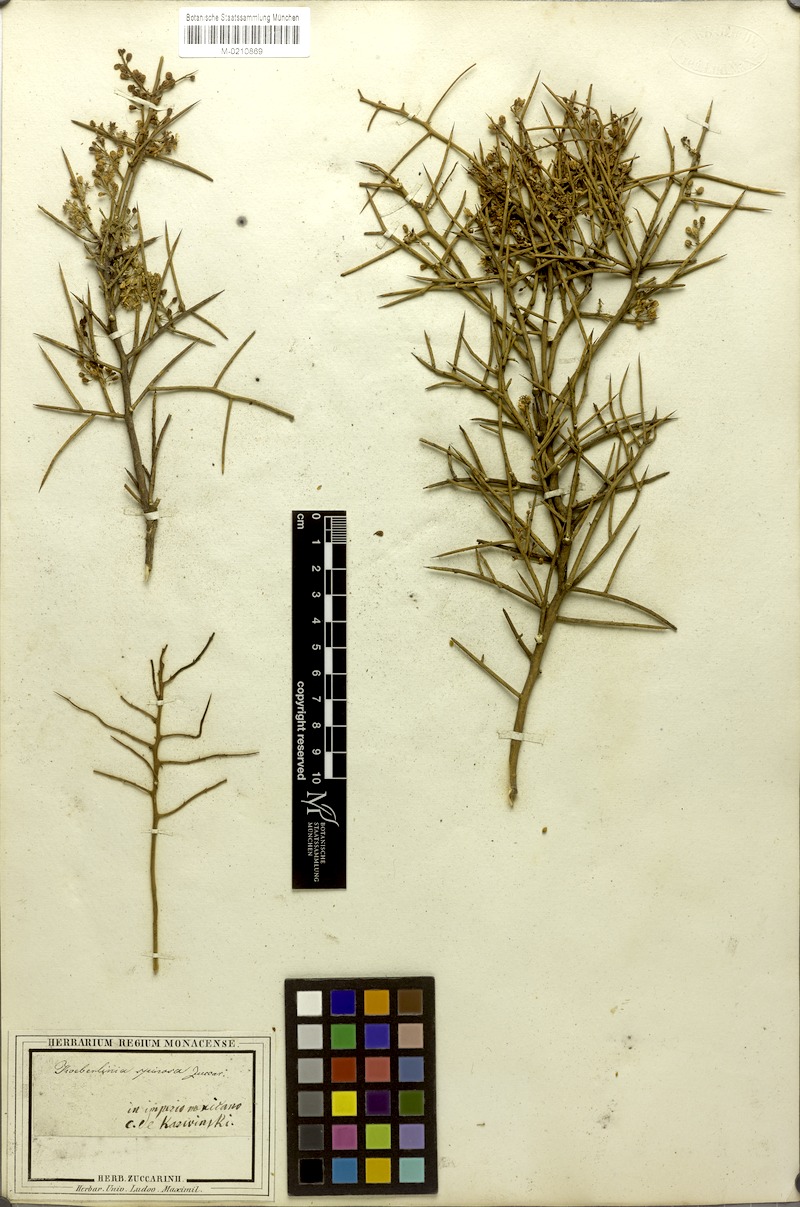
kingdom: Plantae
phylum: Tracheophyta
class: Magnoliopsida
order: Brassicales
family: Koeberliniaceae
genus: Koeberlinia
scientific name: Koeberlinia spinosa
